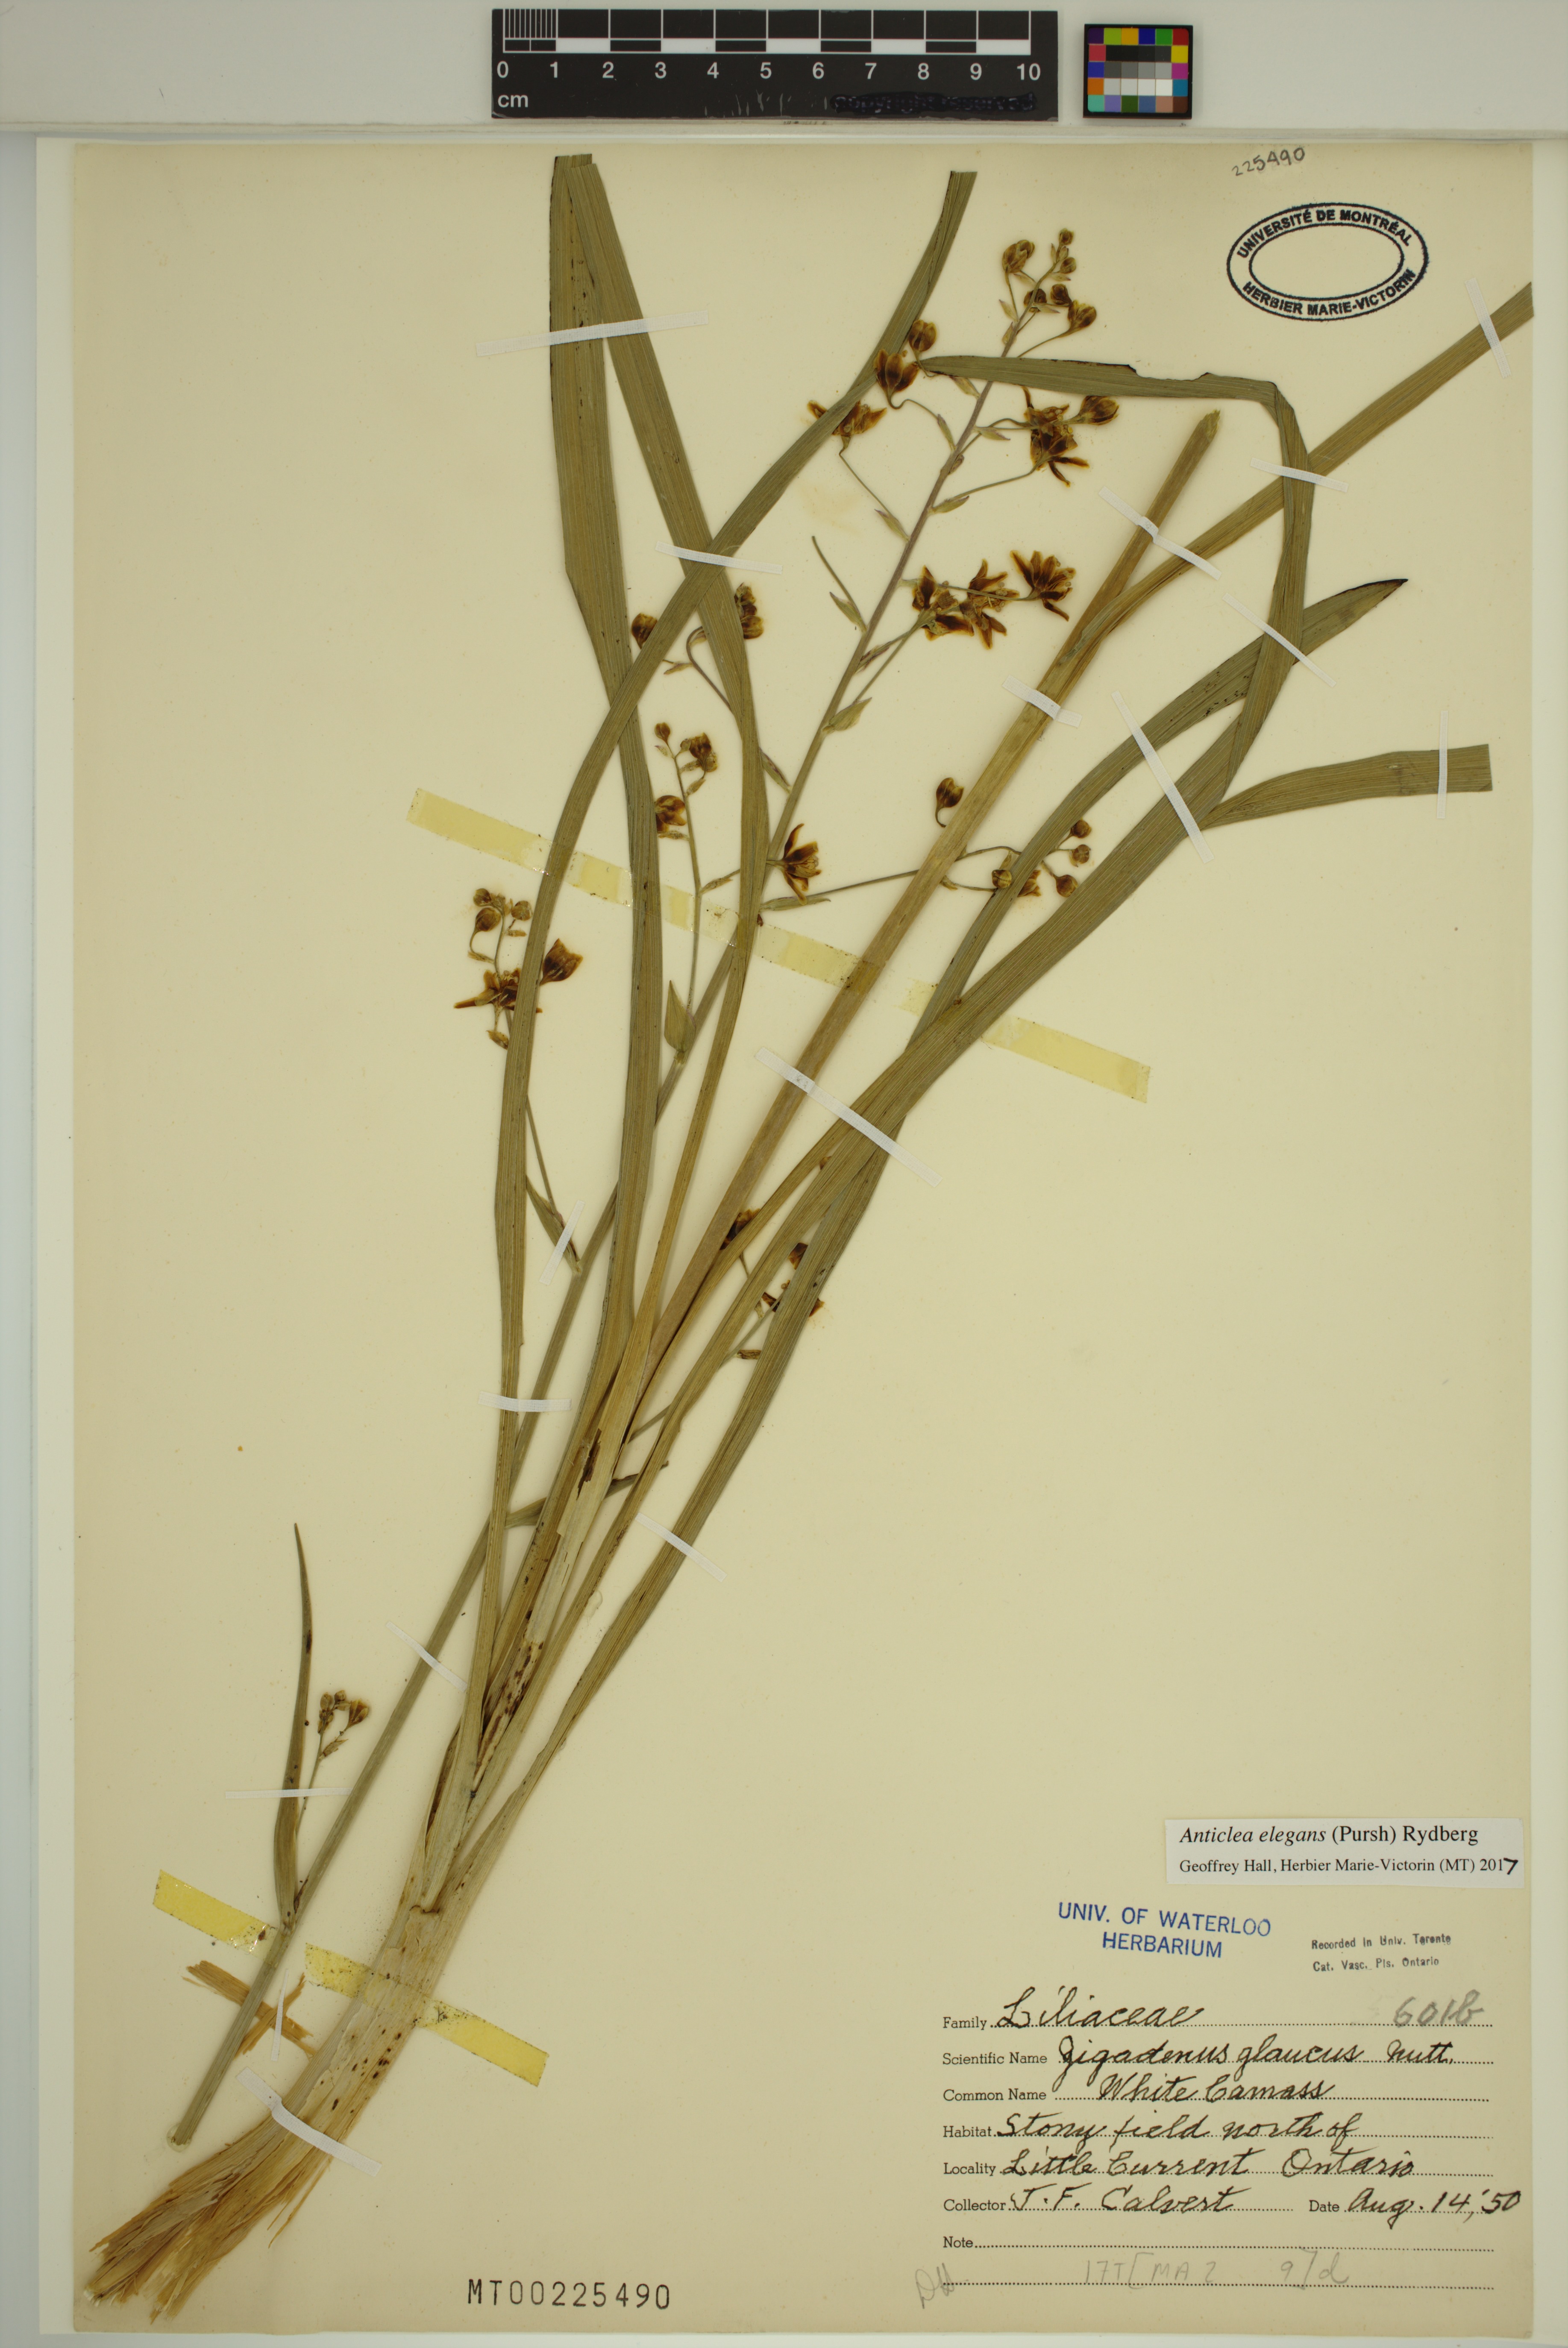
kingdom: Plantae
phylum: Tracheophyta
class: Liliopsida
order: Liliales
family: Melanthiaceae
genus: Anticlea
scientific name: Anticlea elegans
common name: Mountain death camas
